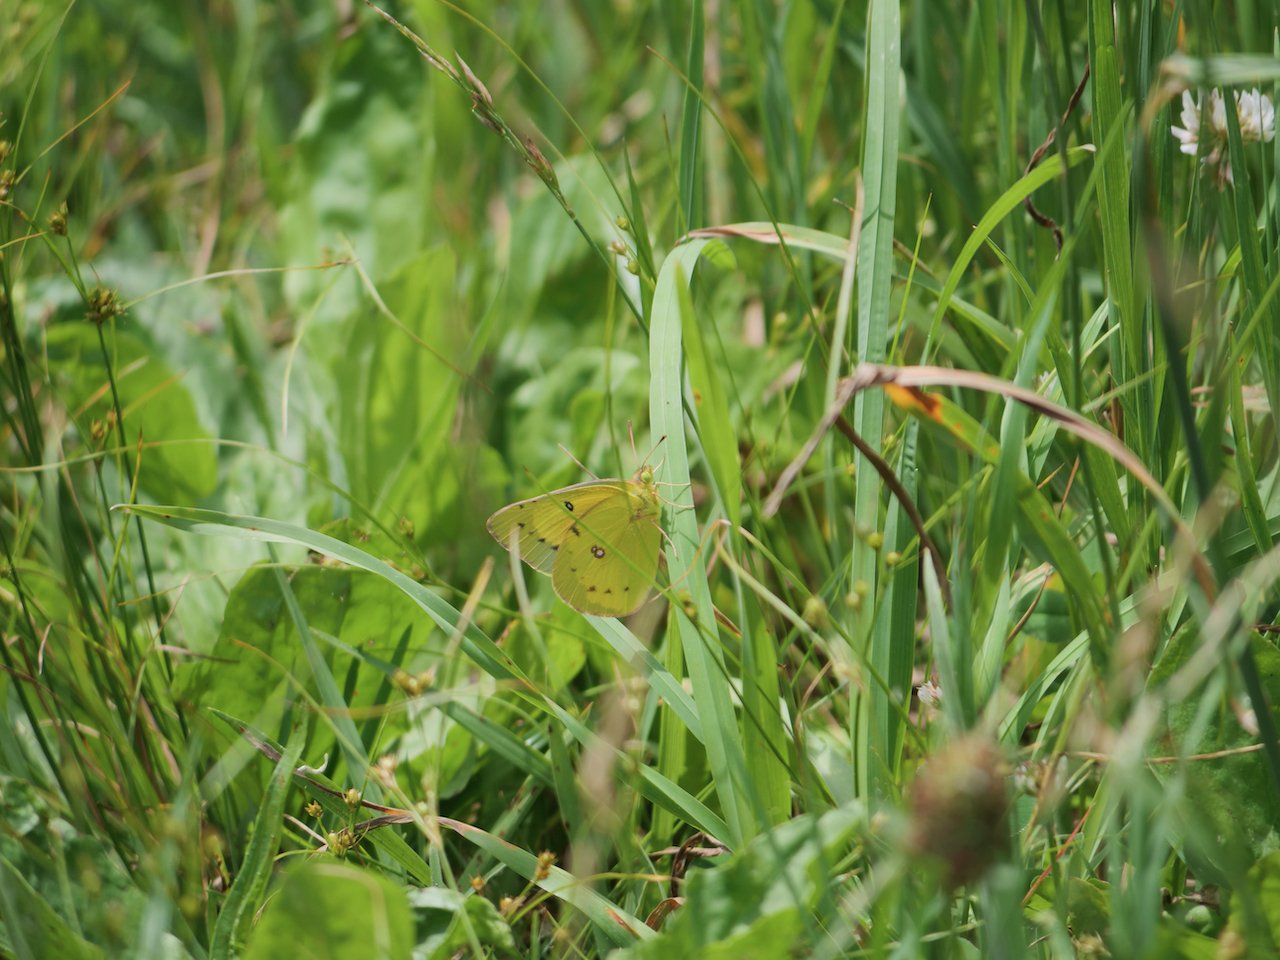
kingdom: Animalia
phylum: Arthropoda
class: Insecta
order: Lepidoptera
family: Pieridae
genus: Colias
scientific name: Colias philodice
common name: Clouded Sulphur
